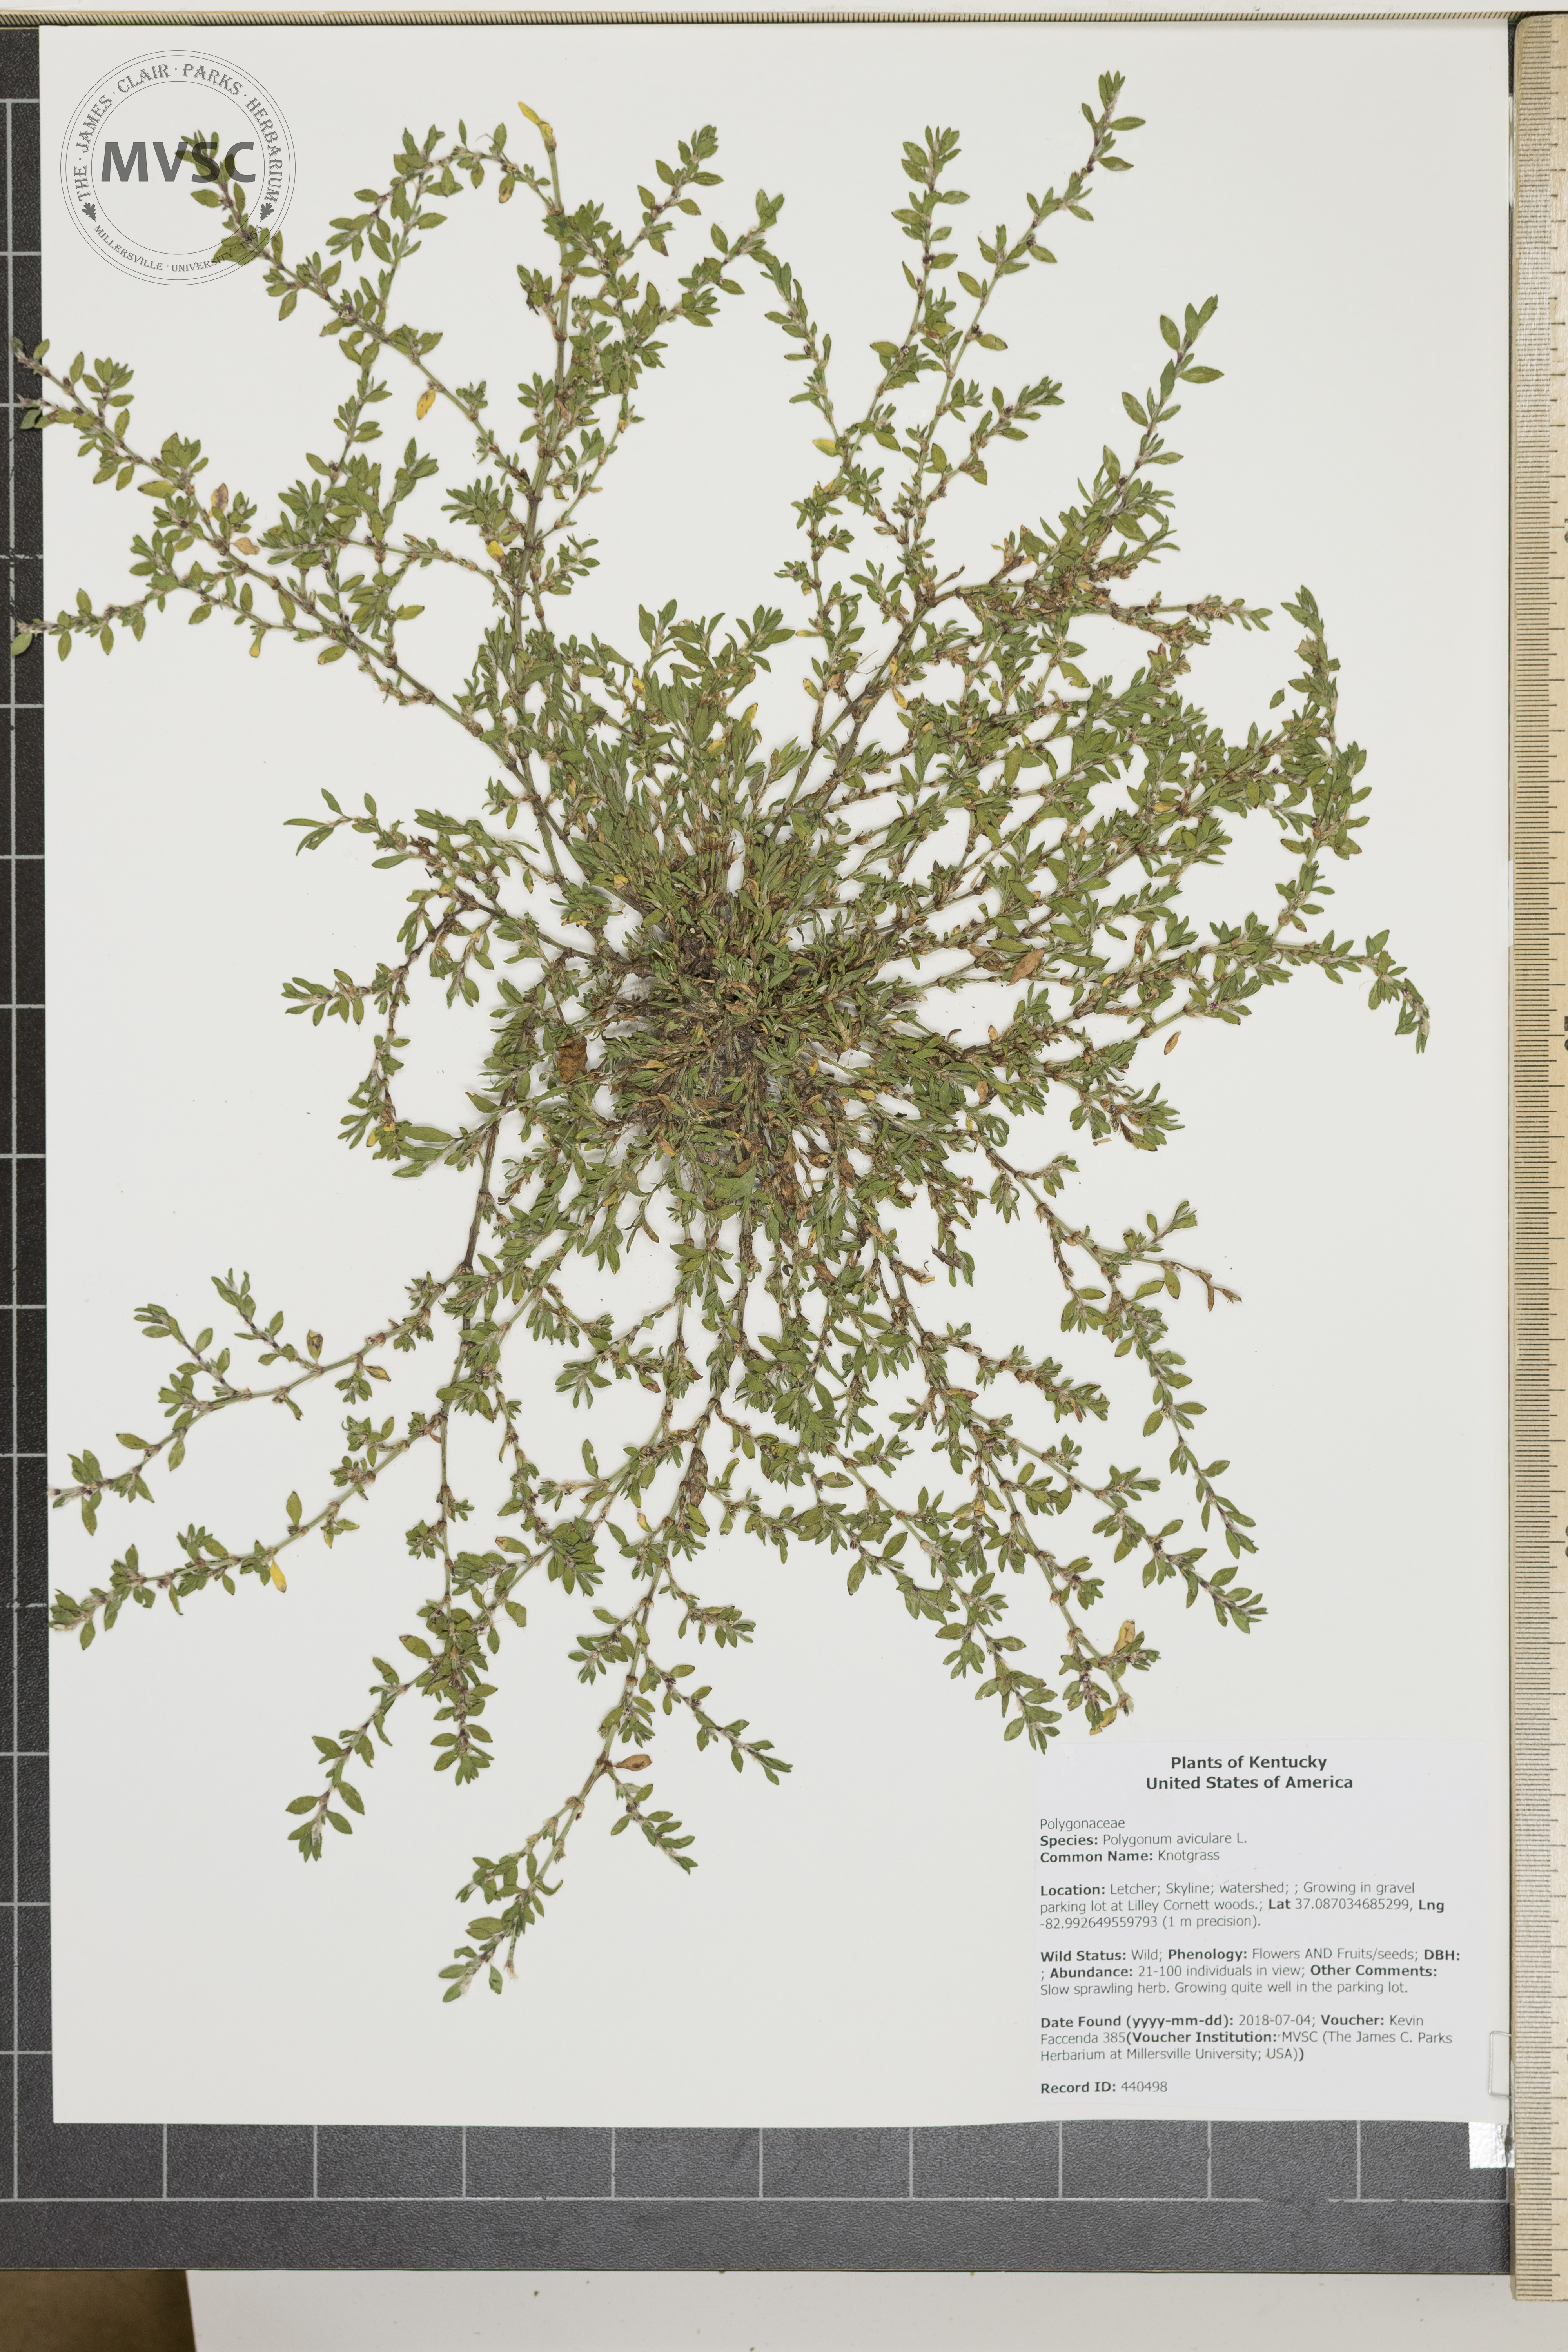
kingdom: Plantae
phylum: Tracheophyta
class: Magnoliopsida
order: Caryophyllales
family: Polygonaceae
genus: Polygonum
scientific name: Polygonum aviculare
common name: Knotgrass
